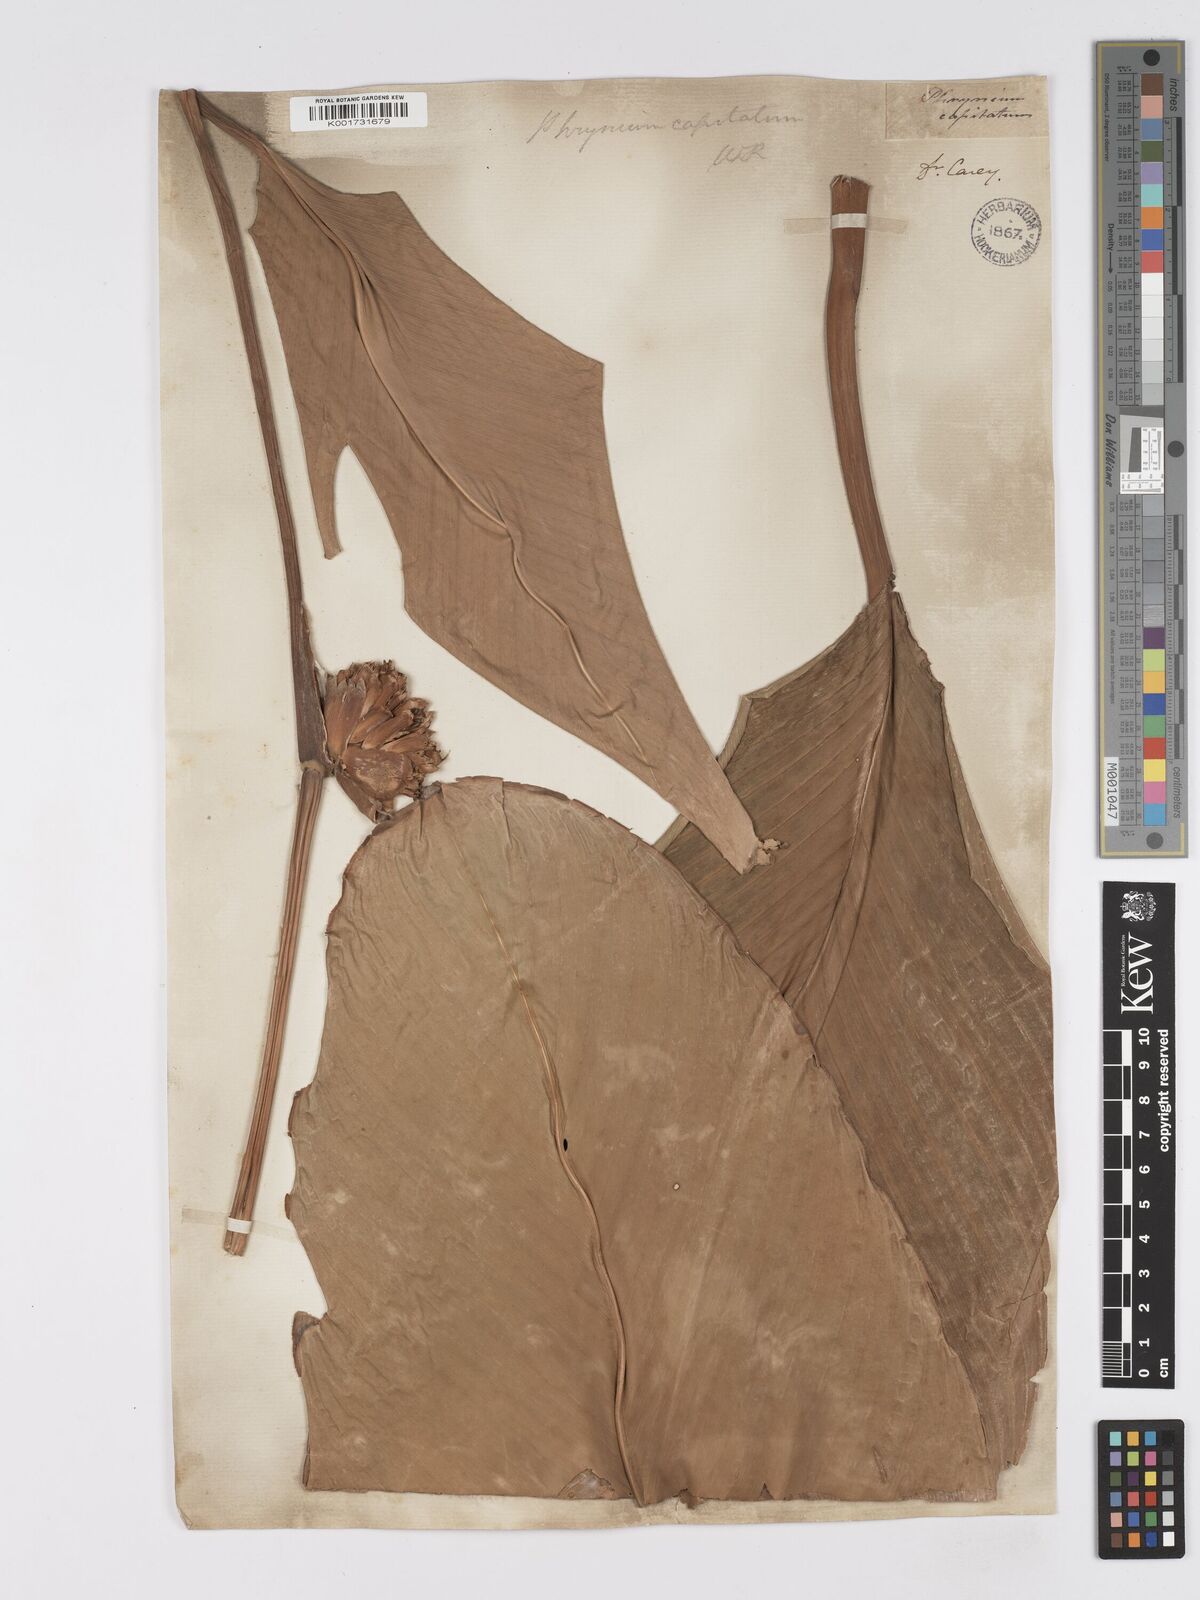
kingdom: Plantae
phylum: Tracheophyta
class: Liliopsida
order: Zingiberales
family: Marantaceae
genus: Phrynium
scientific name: Phrynium pubinerve
